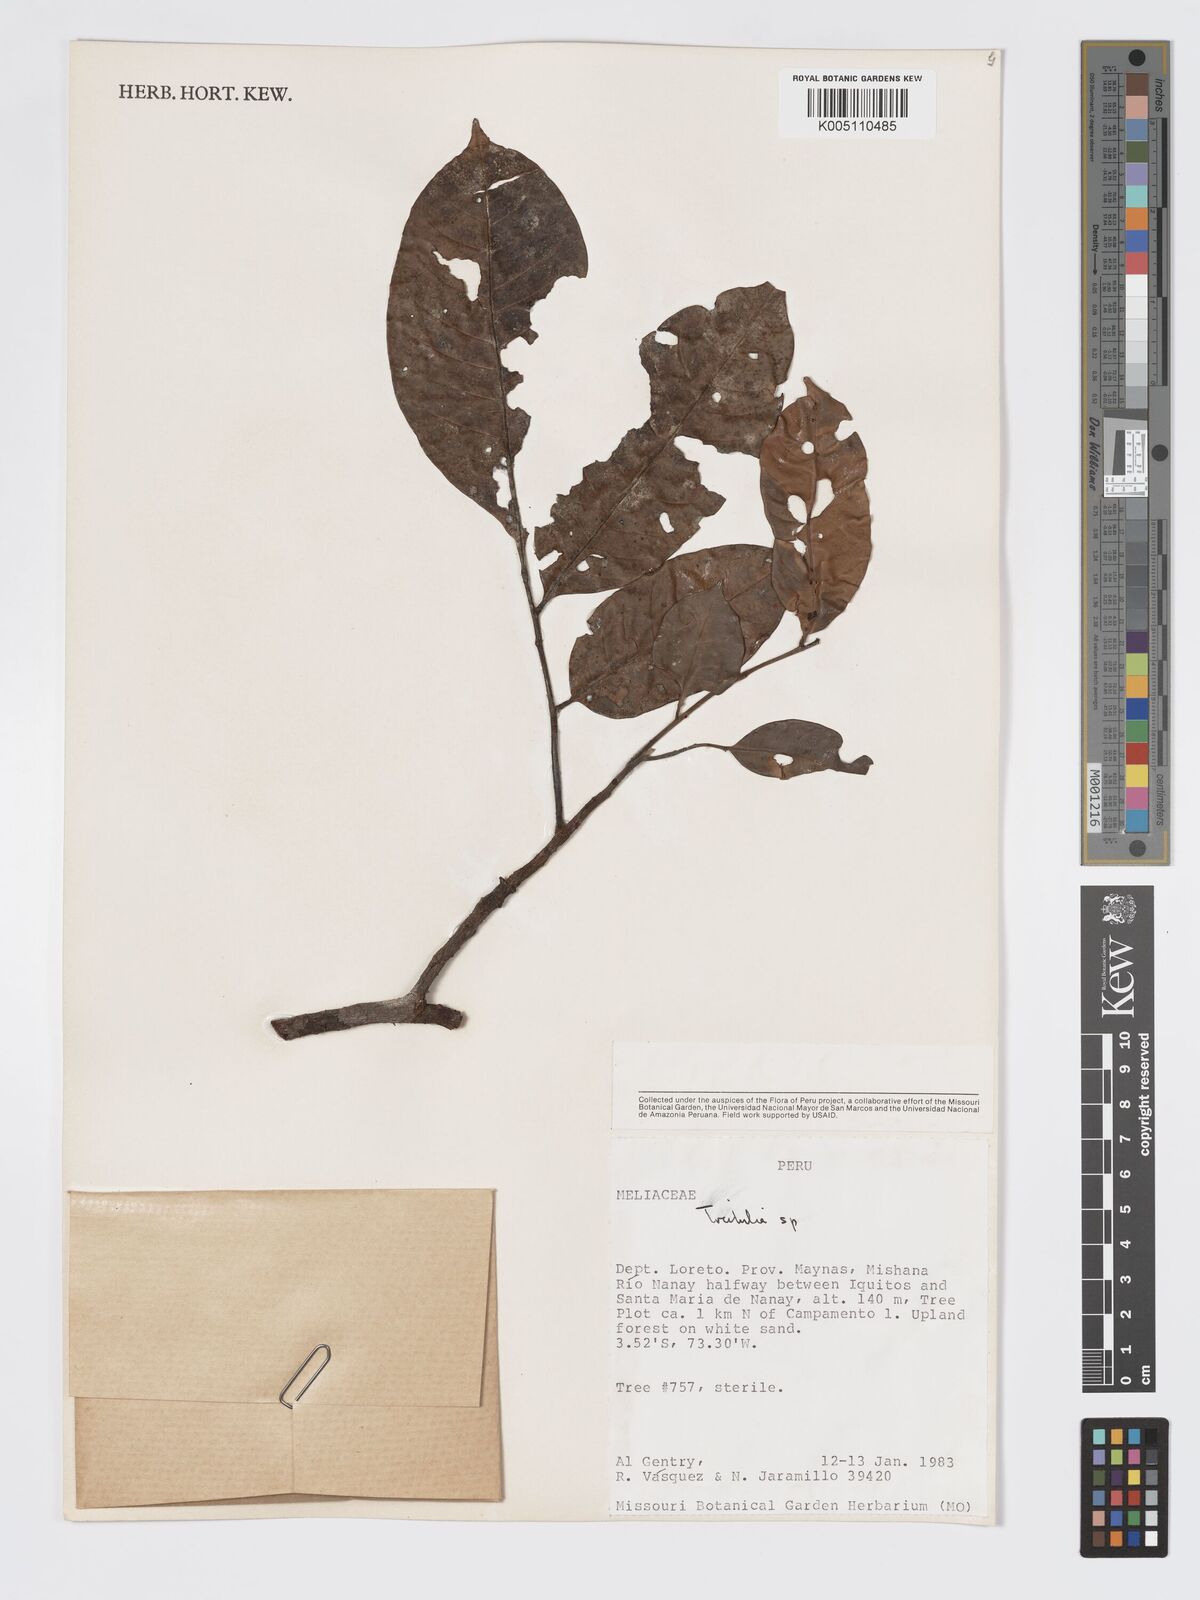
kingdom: Plantae
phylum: Tracheophyta
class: Magnoliopsida
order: Sapindales
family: Meliaceae
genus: Trichilia
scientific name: Trichilia
